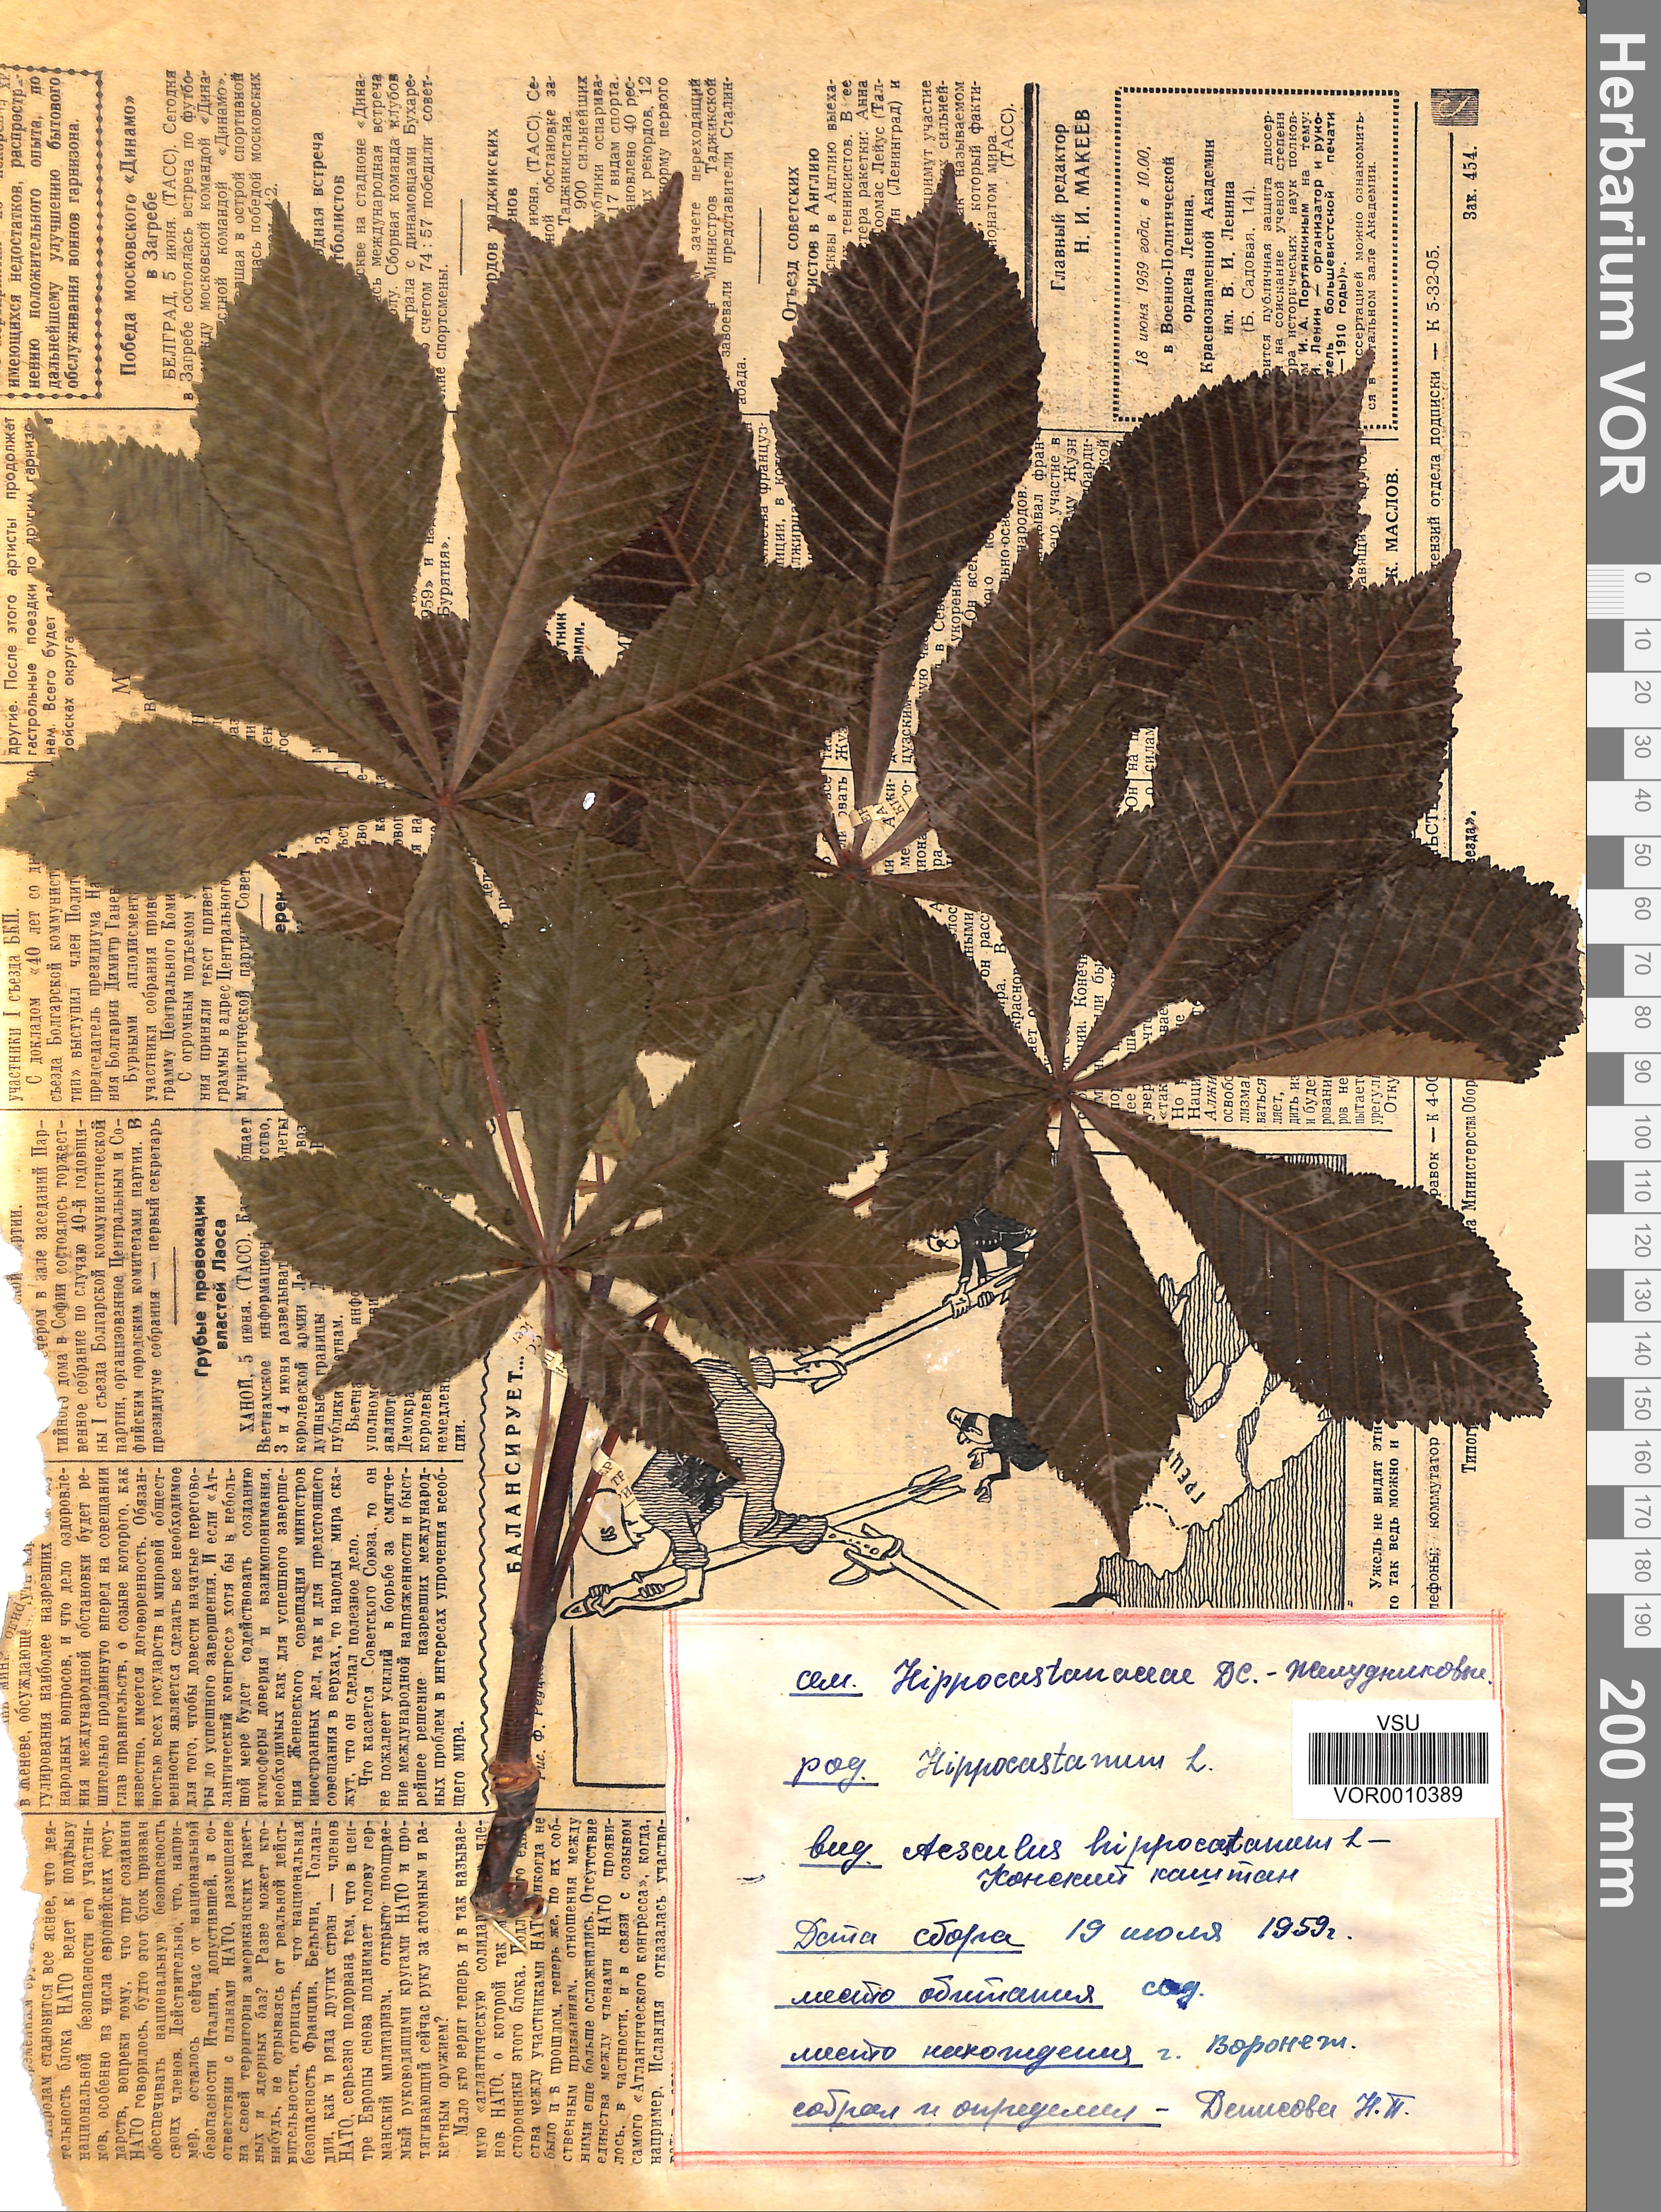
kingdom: Plantae
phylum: Tracheophyta
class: Magnoliopsida
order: Sapindales
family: Sapindaceae
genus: Aesculus
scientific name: Aesculus hippocastanum
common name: Horse-chestnut
